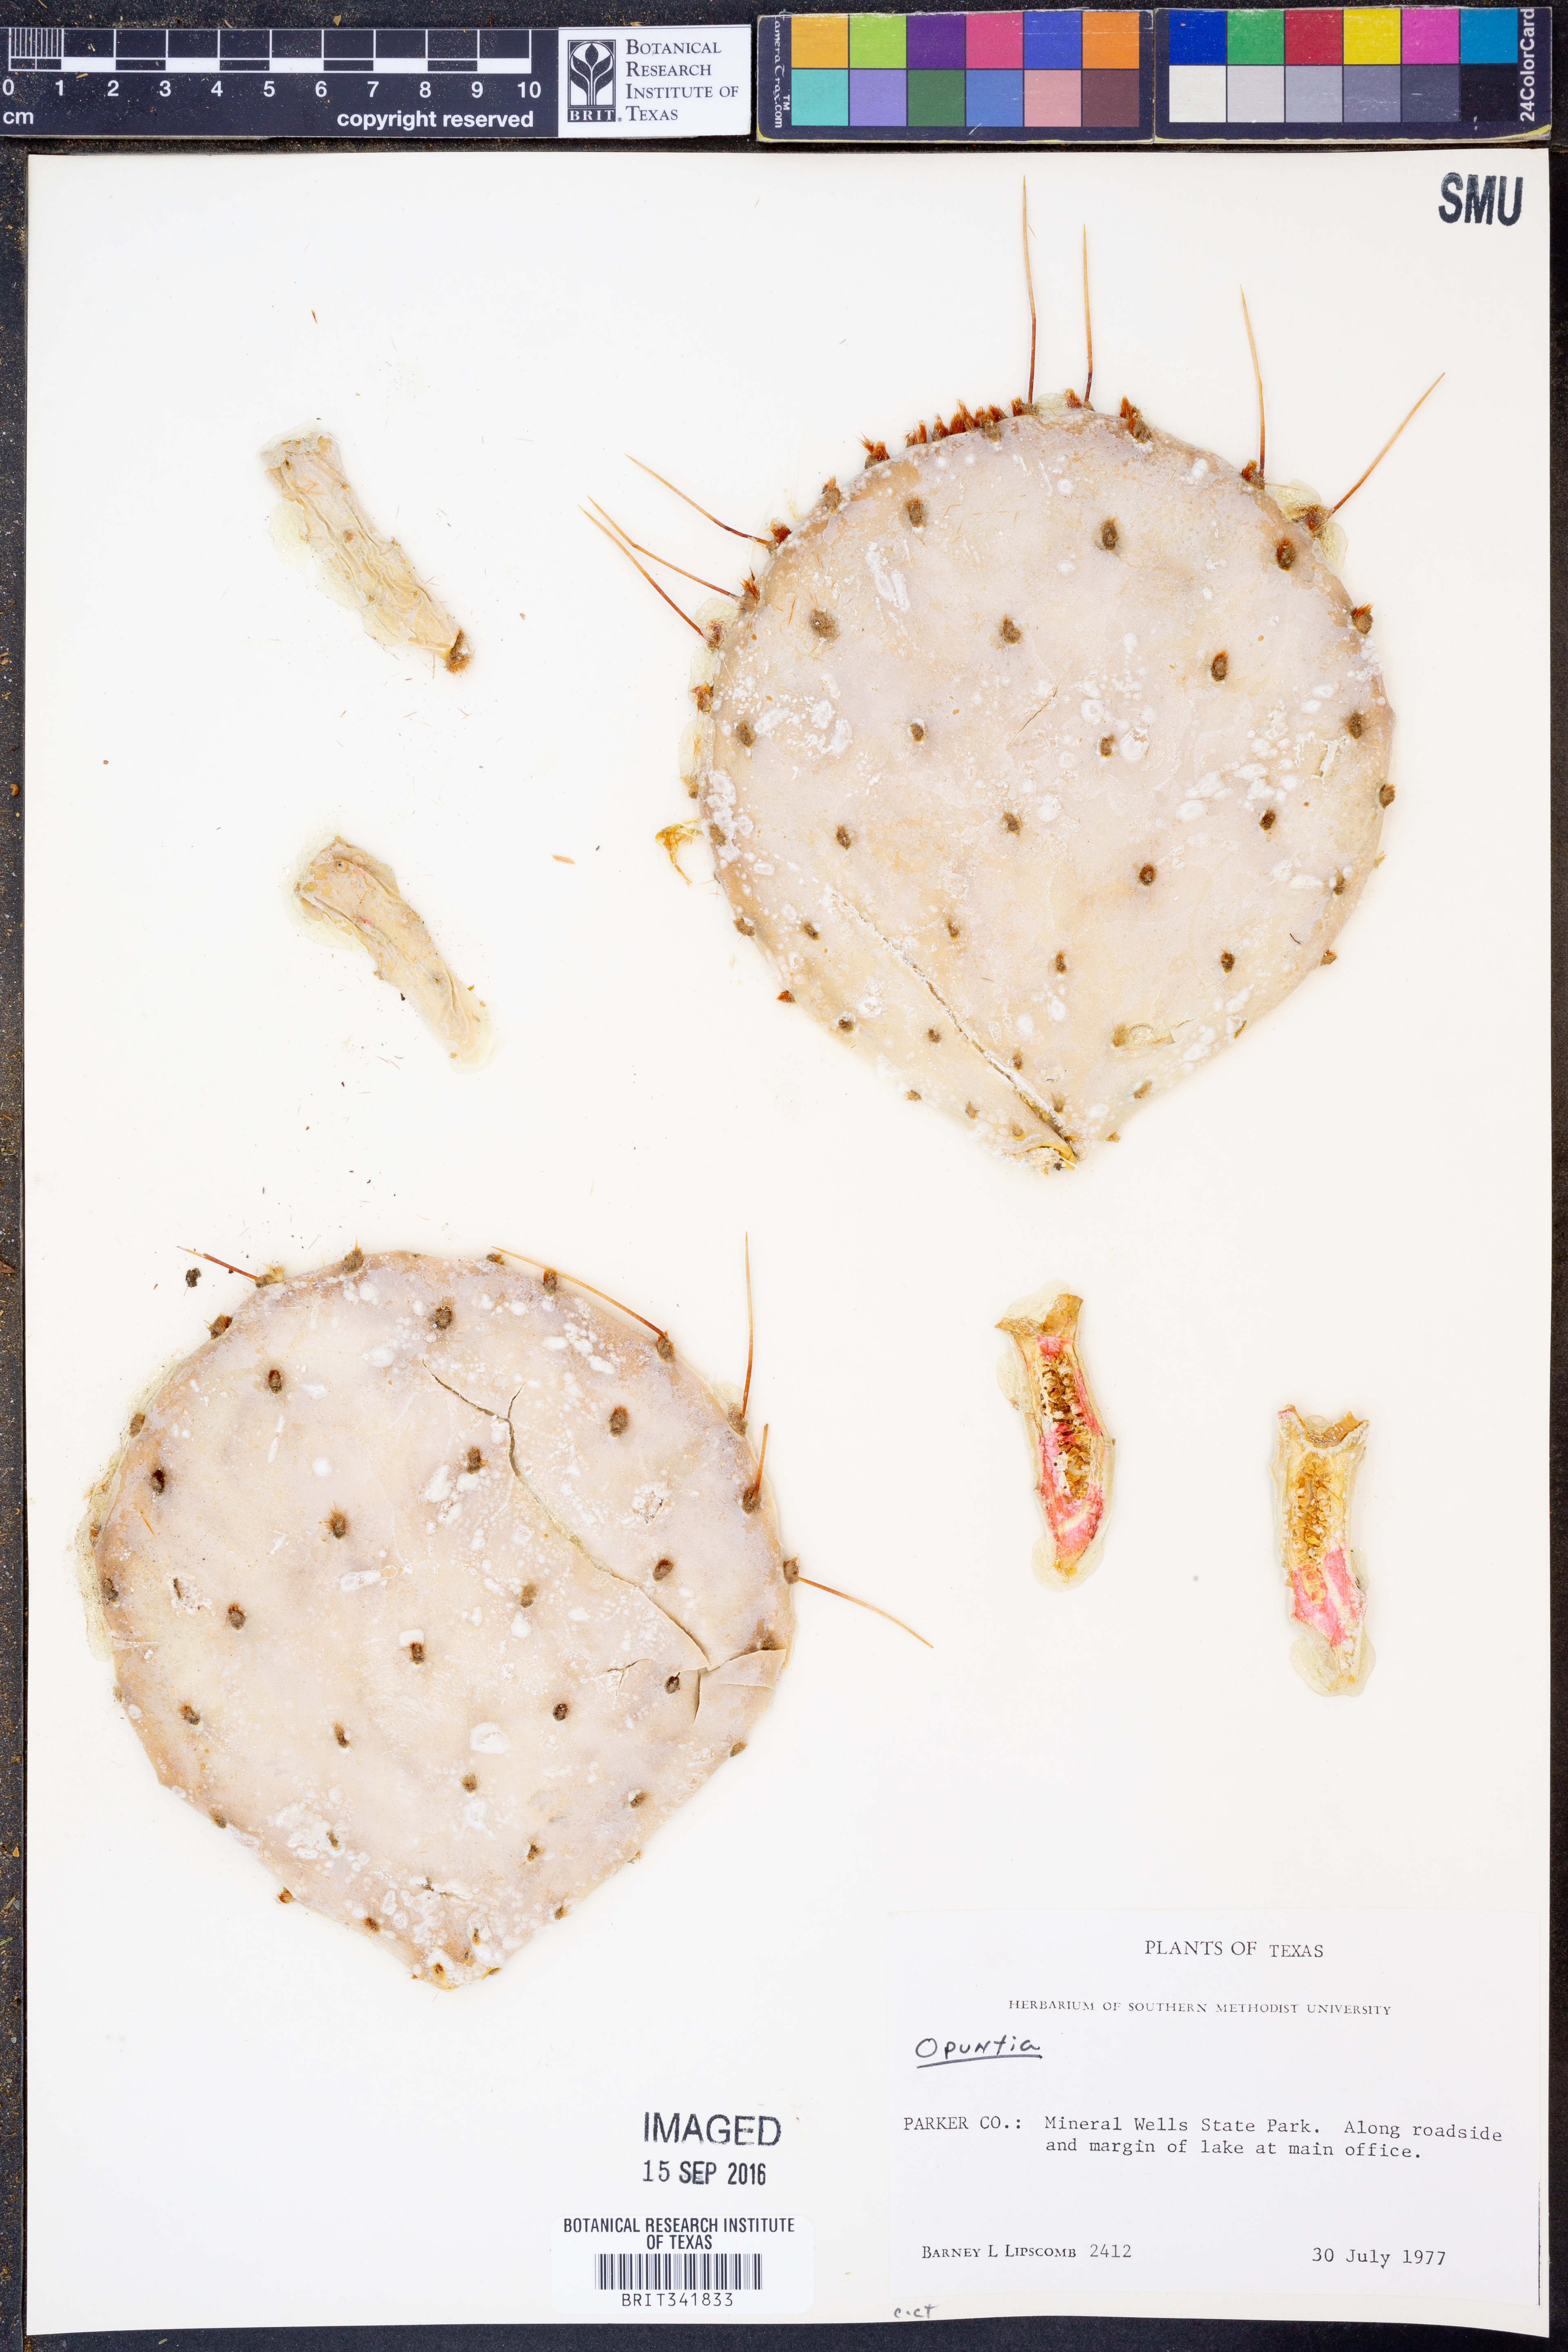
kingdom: Plantae
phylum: Tracheophyta
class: Magnoliopsida
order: Caryophyllales
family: Cactaceae
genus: Opuntia
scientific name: Opuntia
